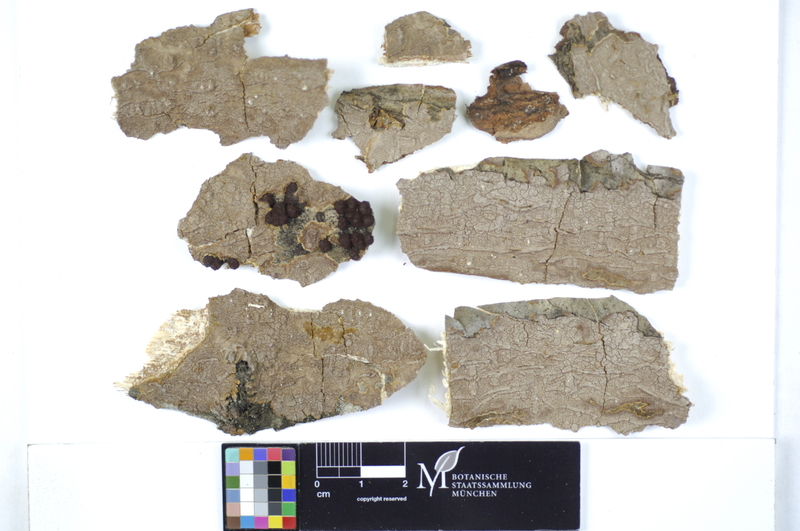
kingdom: Fungi
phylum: Basidiomycota
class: Agaricomycetes
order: Hymenochaetales
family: Hymenochaetaceae
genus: Hydnoporia
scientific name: Hydnoporia corrugata
